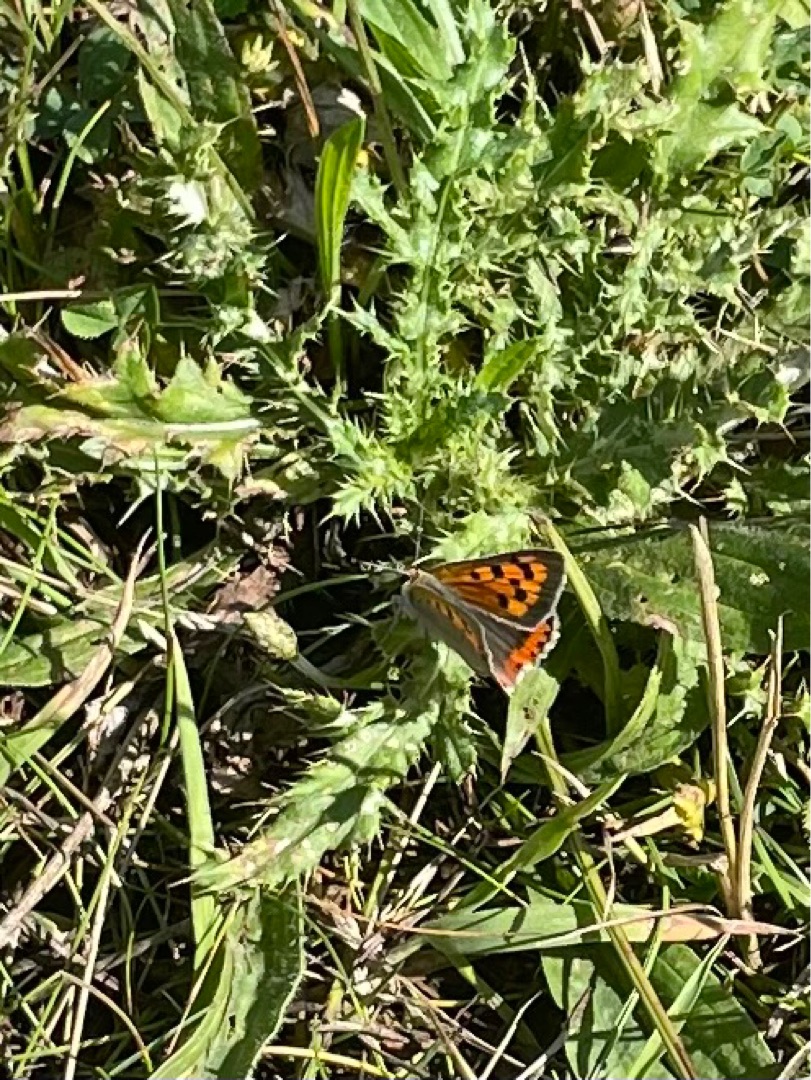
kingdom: Animalia
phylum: Arthropoda
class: Insecta
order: Lepidoptera
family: Lycaenidae
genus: Lycaena
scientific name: Lycaena phlaeas
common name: Lille ildfugl
